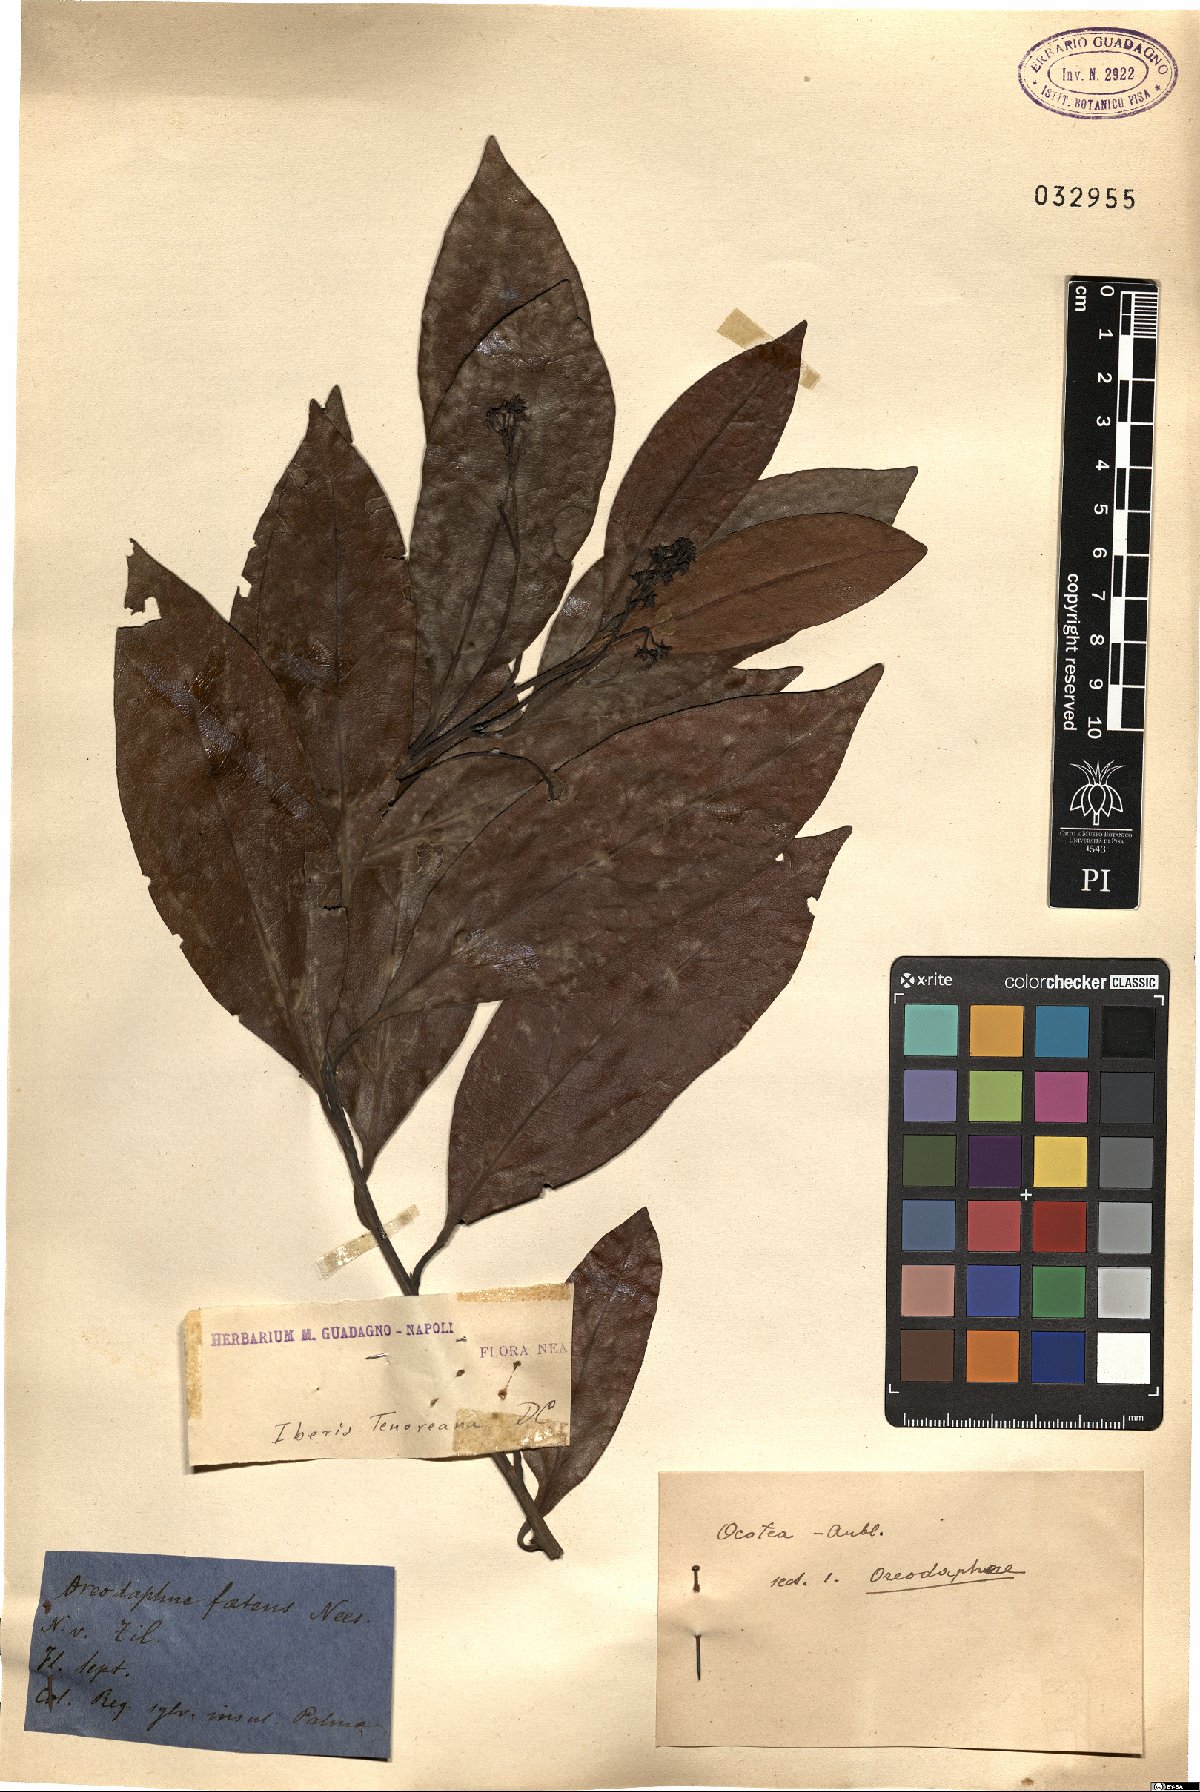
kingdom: Plantae
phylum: Tracheophyta
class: Magnoliopsida
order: Laurales
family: Lauraceae
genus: Mespilodaphne
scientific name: Mespilodaphne foetens
